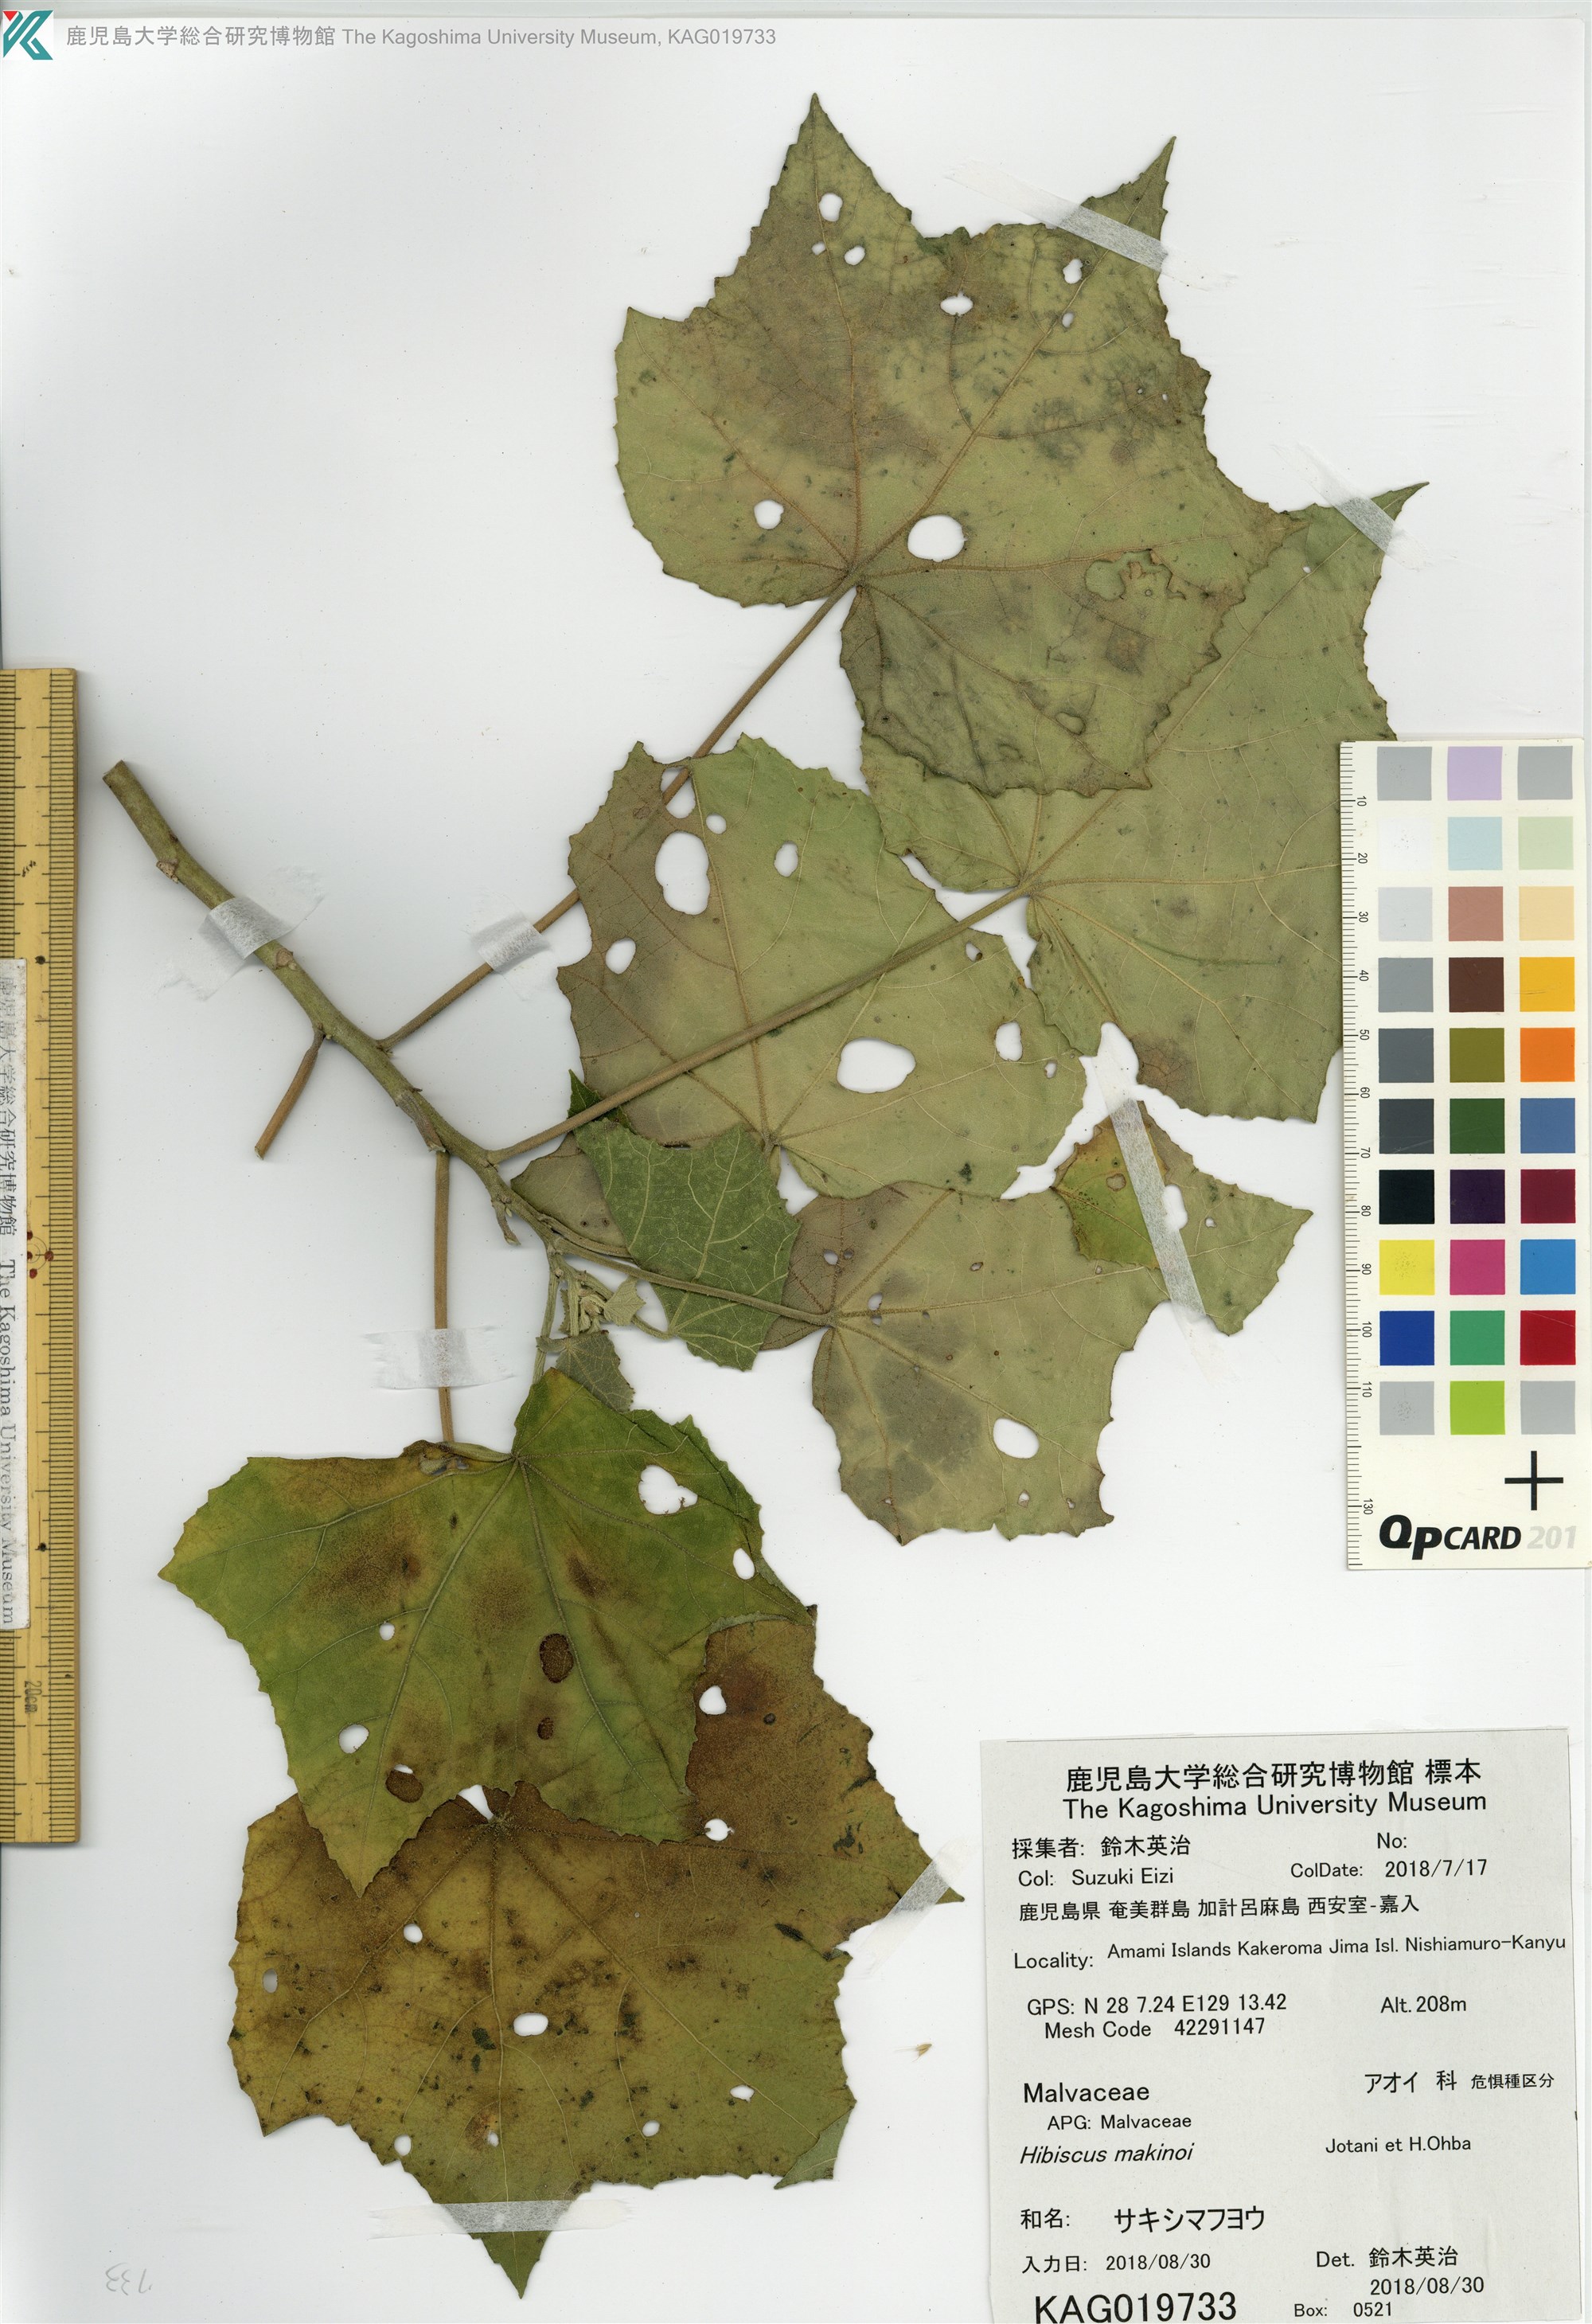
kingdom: Plantae
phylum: Tracheophyta
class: Magnoliopsida
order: Malvales
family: Malvaceae
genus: Hibiscus
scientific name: Hibiscus makinoi
